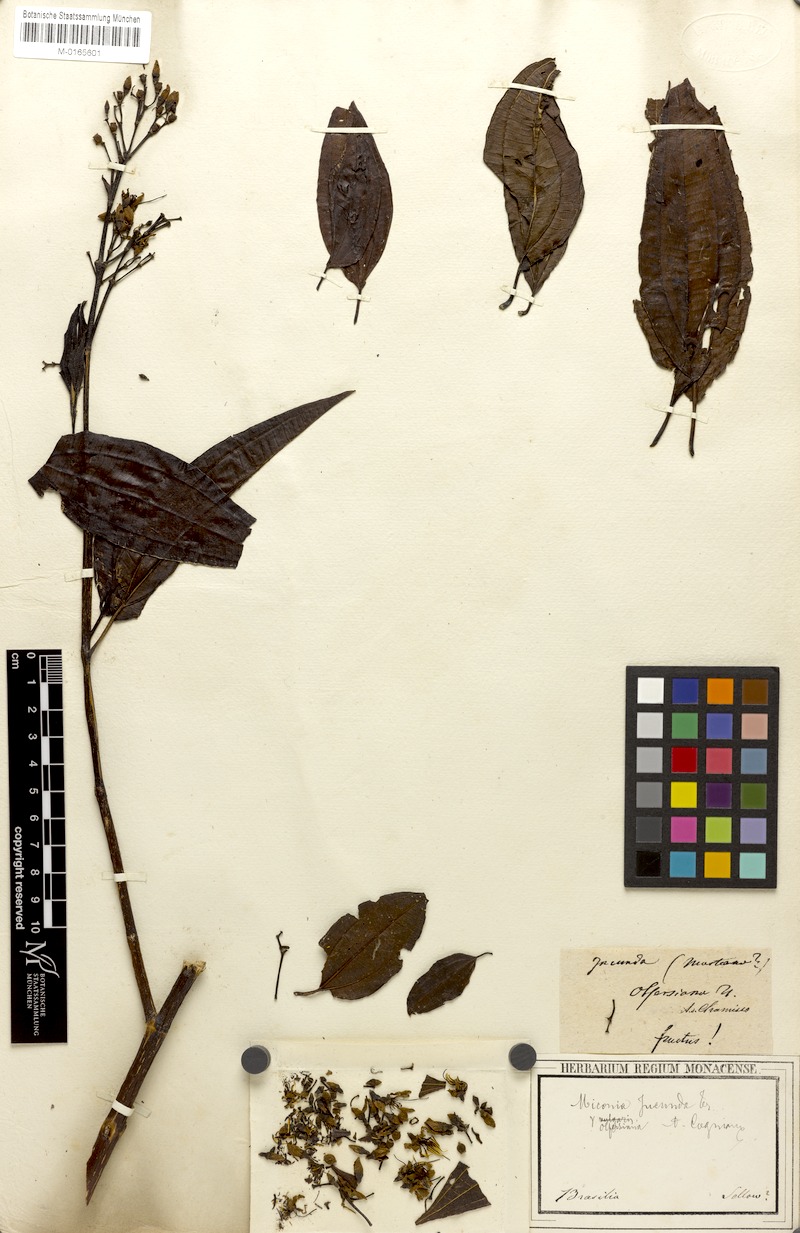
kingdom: Plantae
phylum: Tracheophyta
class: Magnoliopsida
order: Myrtales
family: Melastomataceae
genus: Miconia
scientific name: Miconia jucunda
